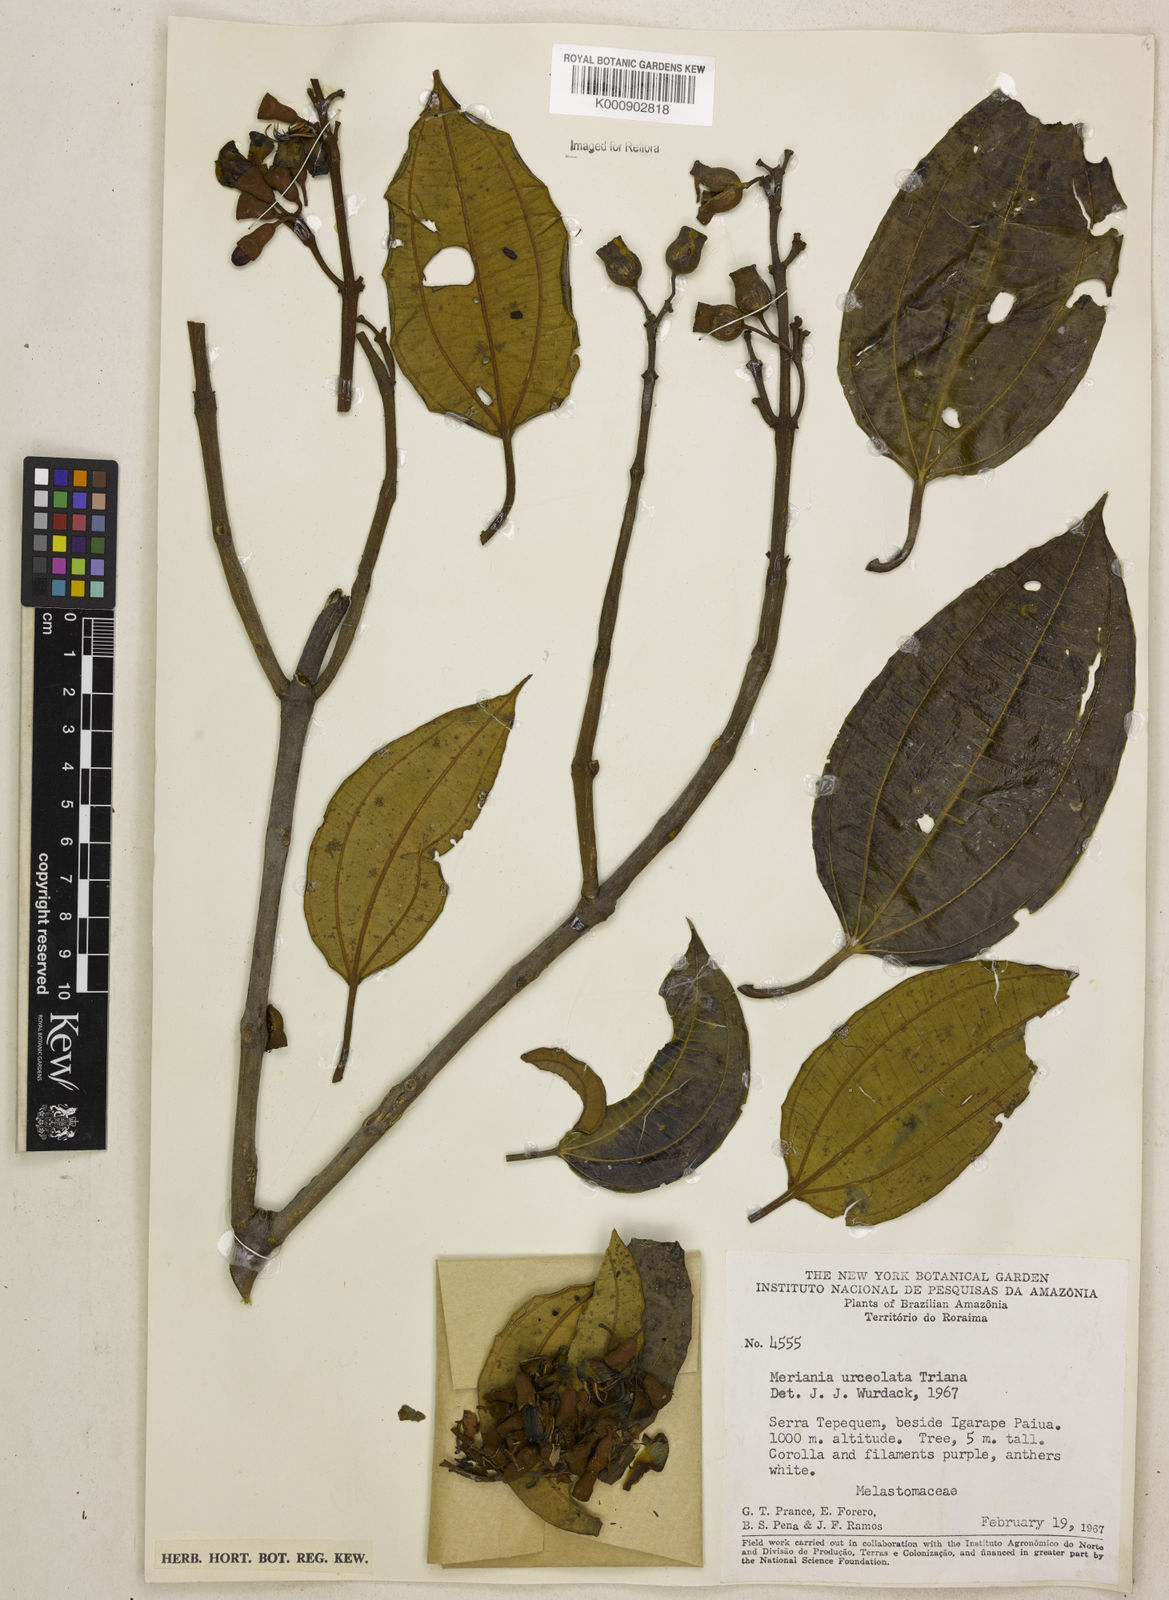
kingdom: Plantae
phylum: Tracheophyta
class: Magnoliopsida
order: Myrtales
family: Melastomataceae
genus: Meriania
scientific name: Meriania urceolata
